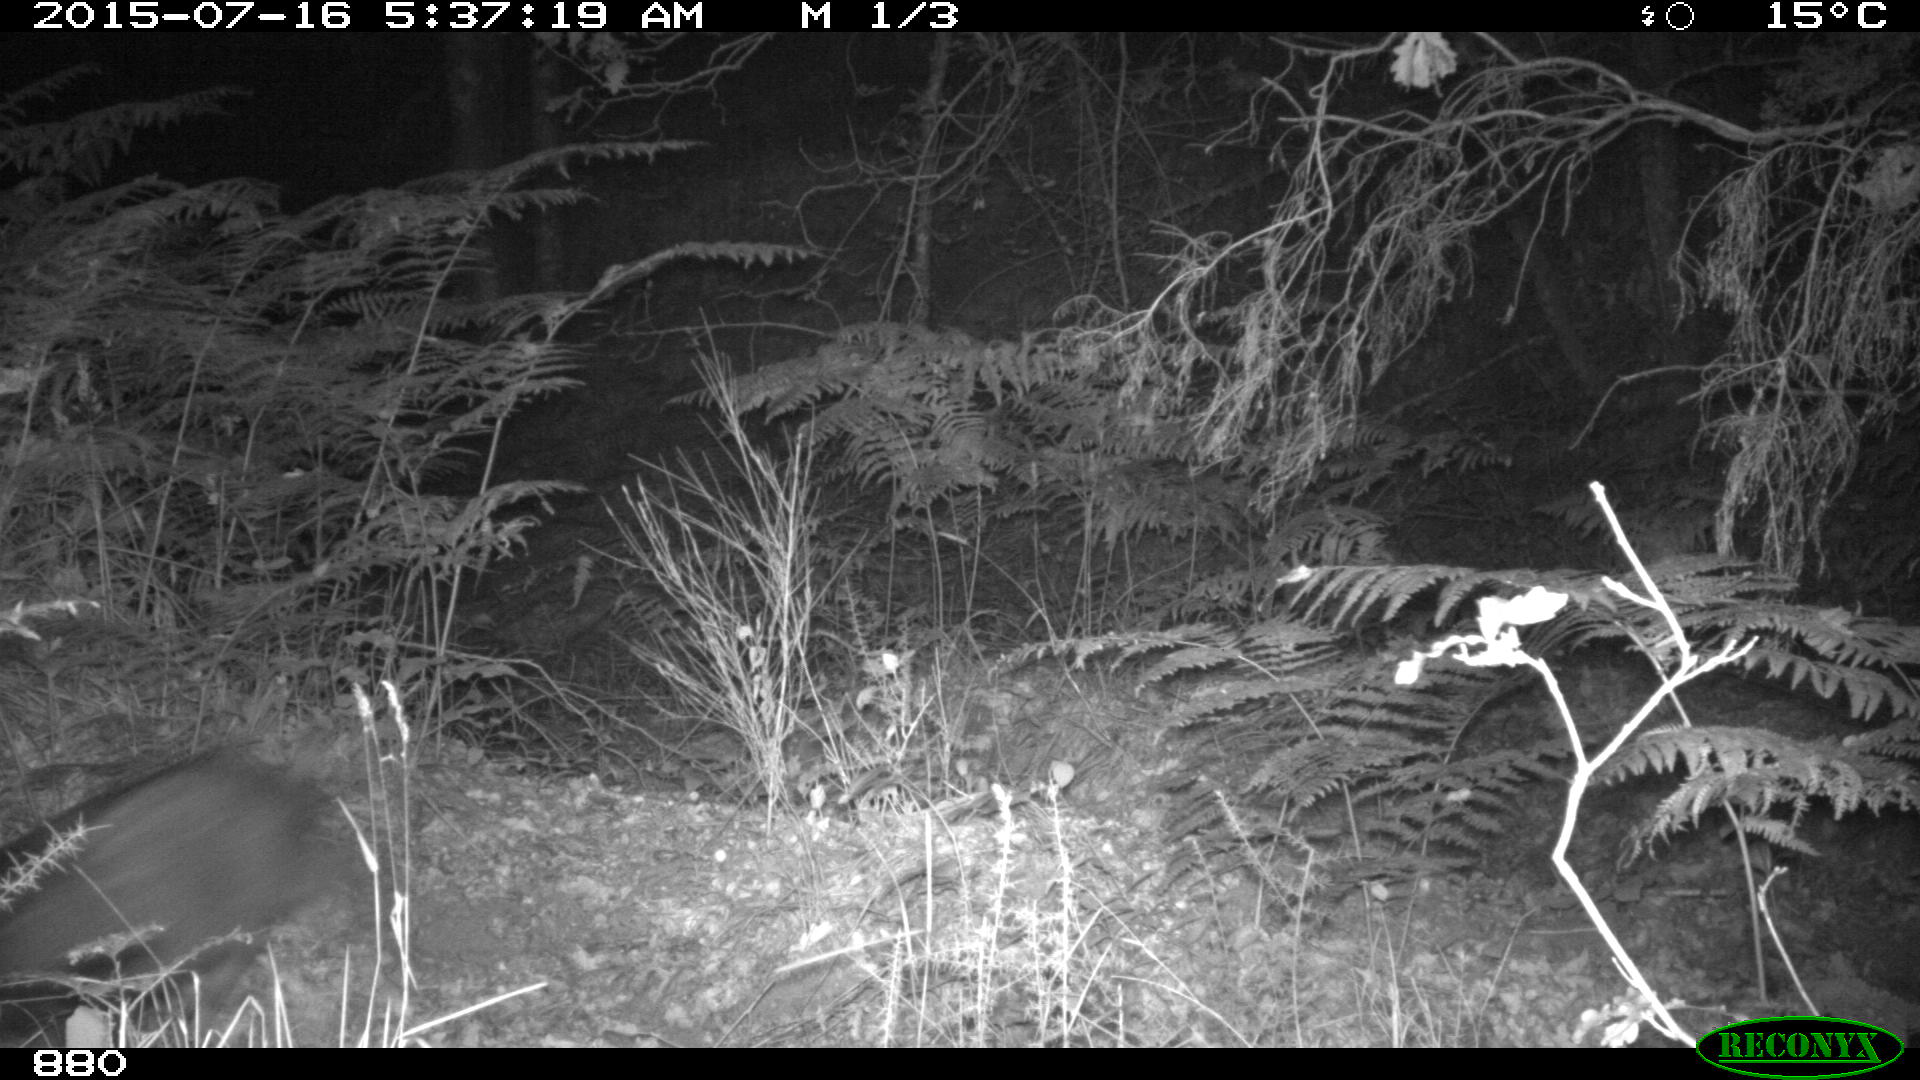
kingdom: Animalia
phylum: Chordata
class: Mammalia
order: Artiodactyla
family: Suidae
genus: Sus
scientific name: Sus scrofa
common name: Wild boar
